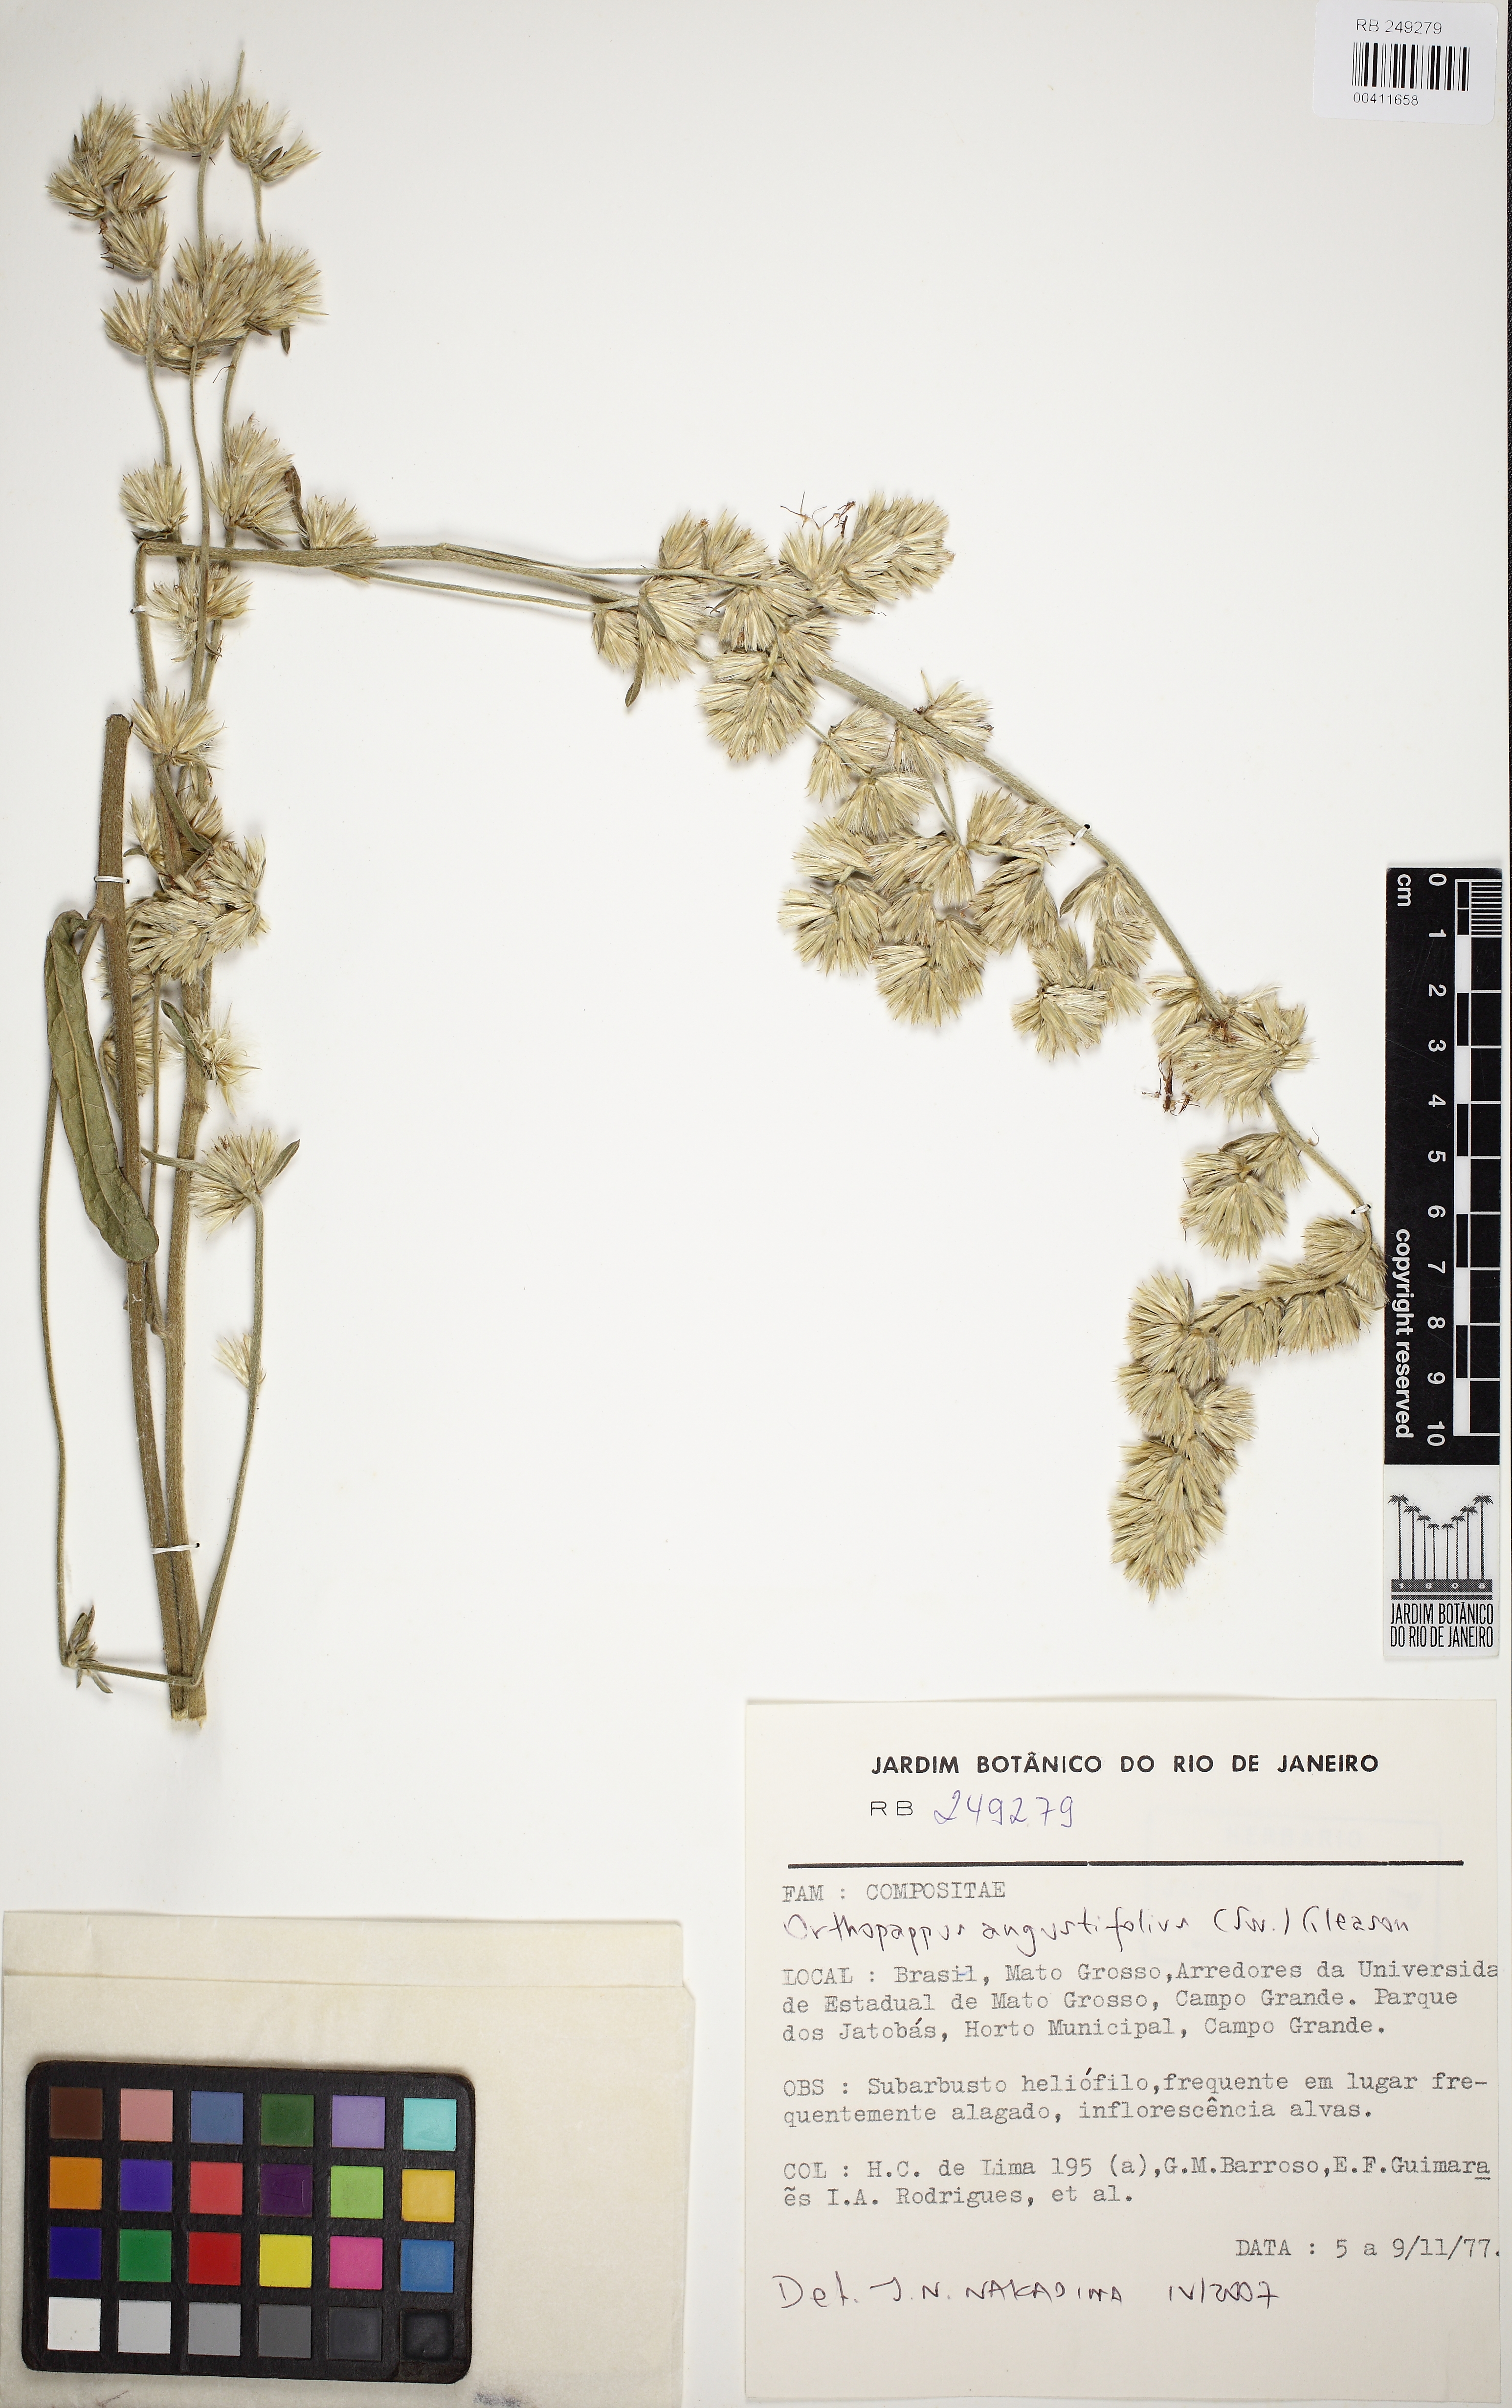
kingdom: Plantae
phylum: Tracheophyta
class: Magnoliopsida
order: Asterales
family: Asteraceae
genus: Orthopappus
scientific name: Orthopappus angustifolius
